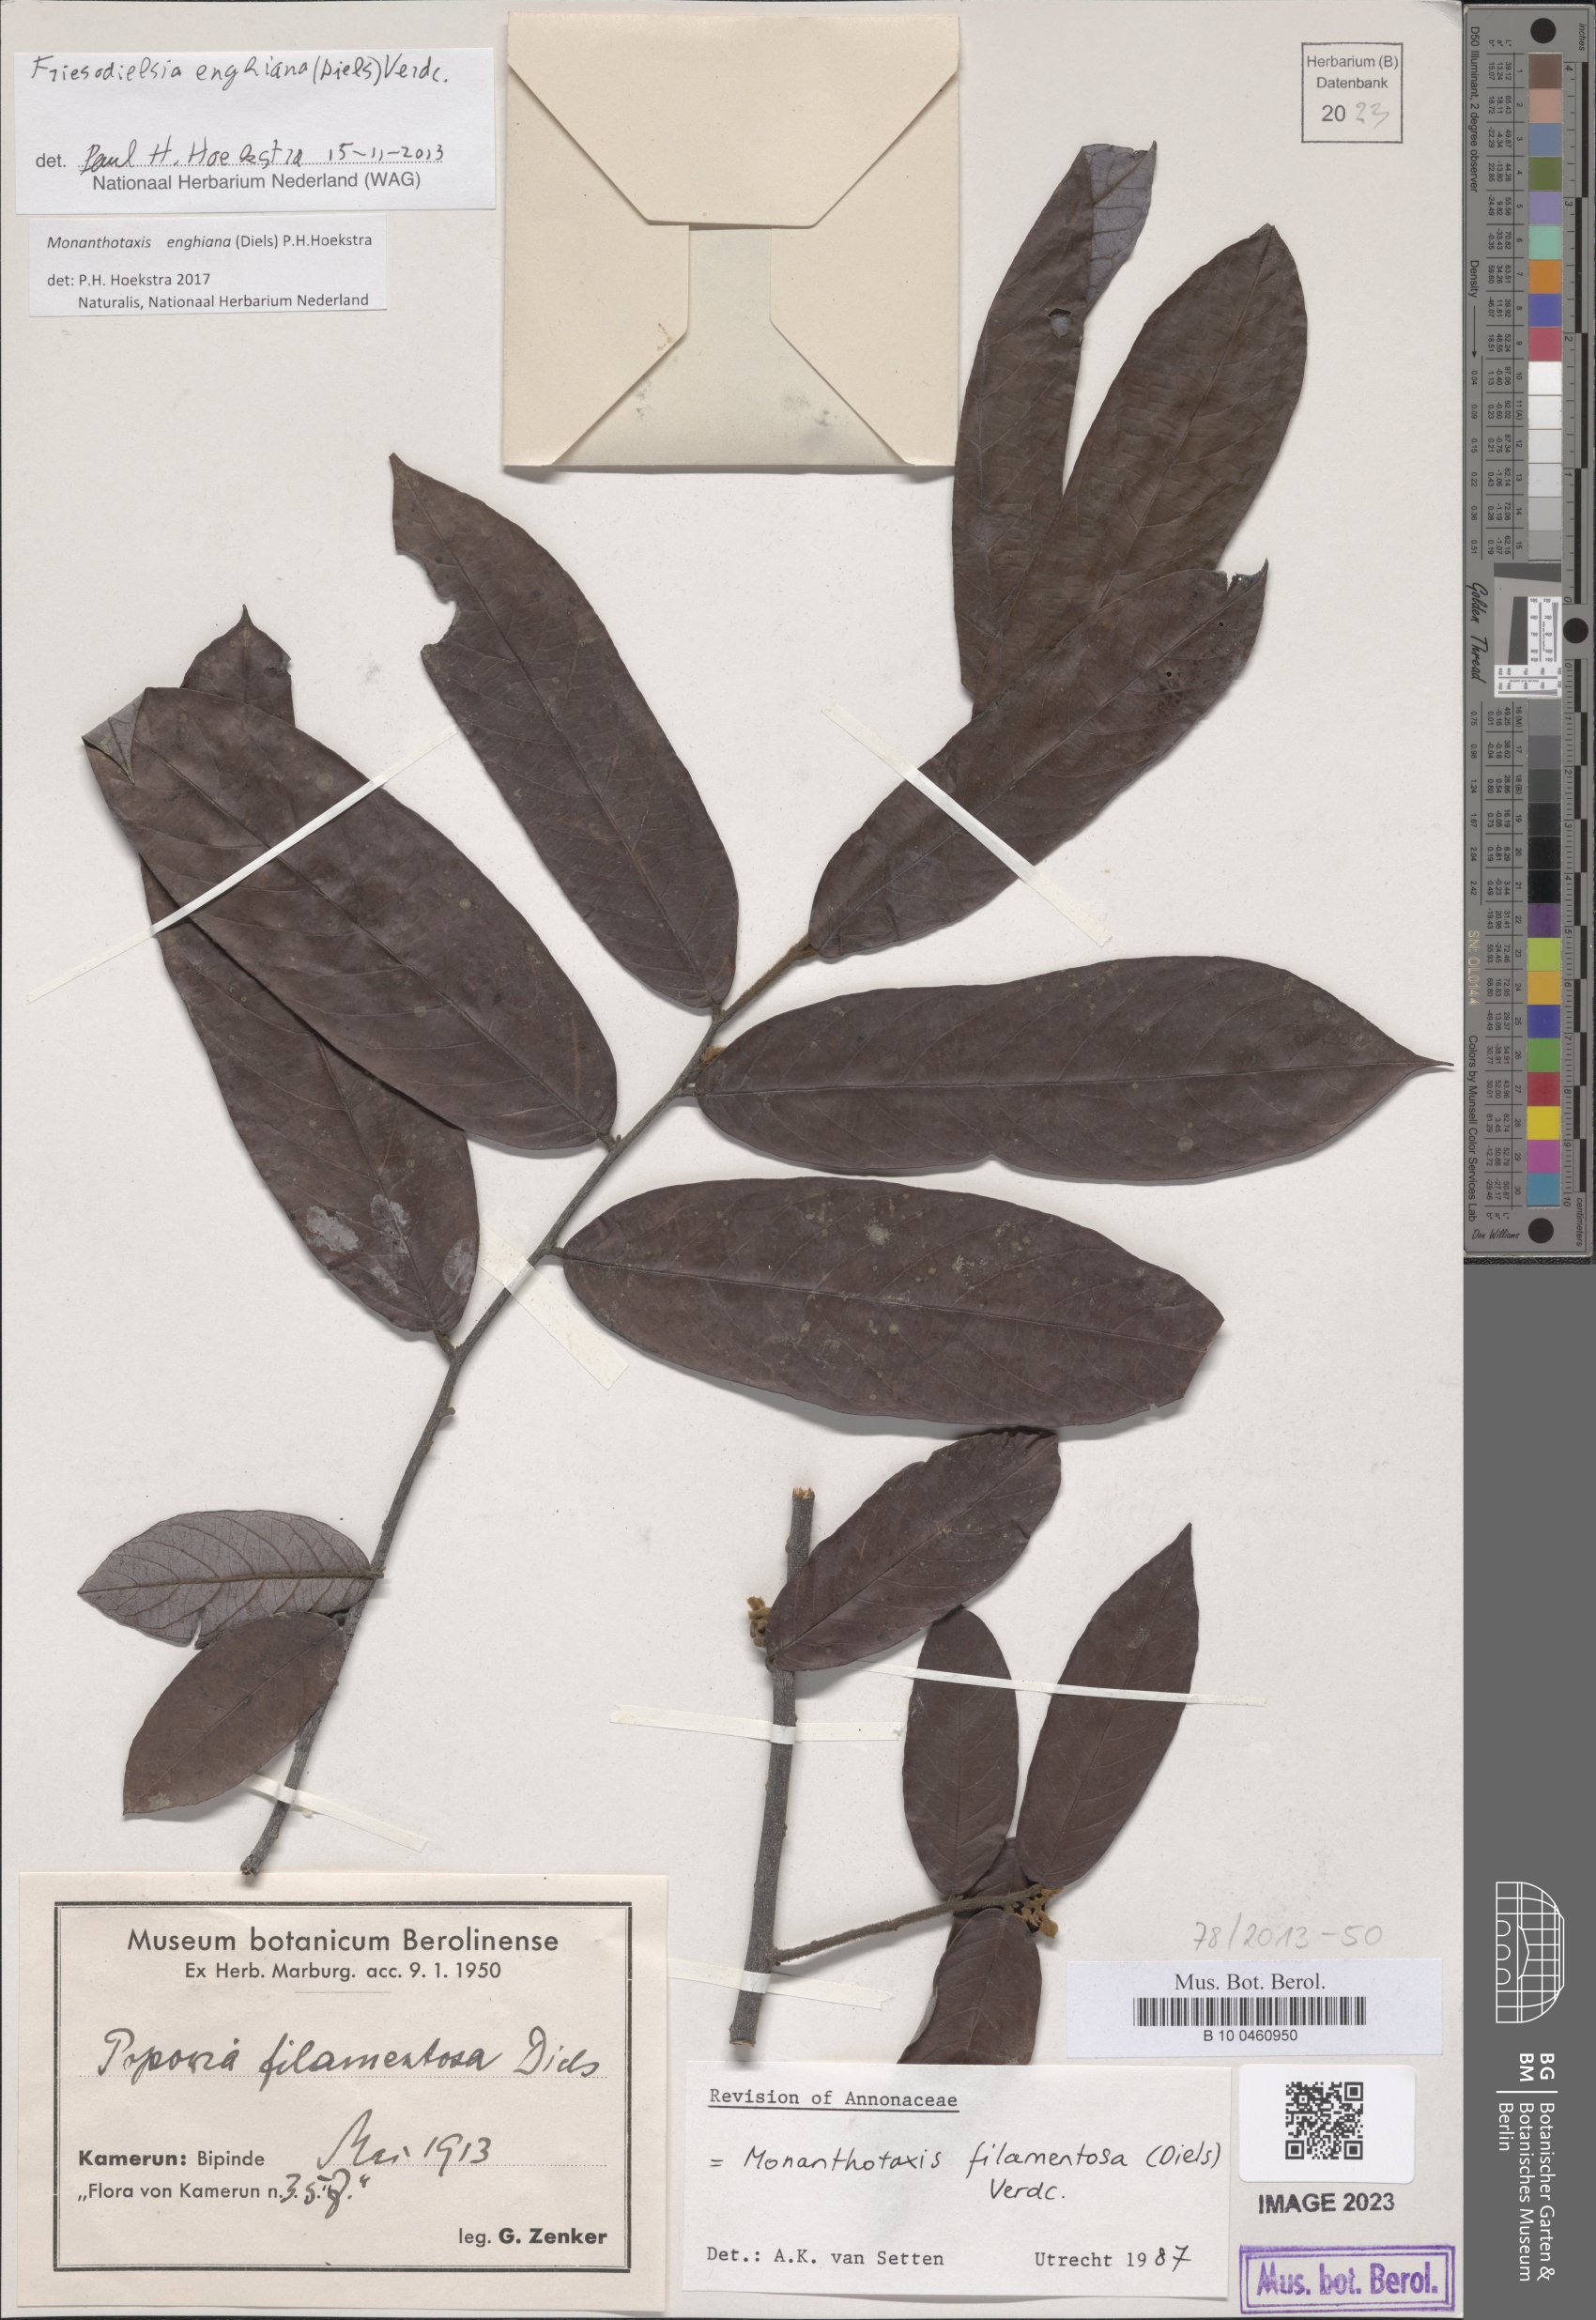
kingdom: Plantae
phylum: Tracheophyta
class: Magnoliopsida
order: Magnoliales
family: Annonaceae
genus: Friesodielsia
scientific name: Friesodielsia enghiana
